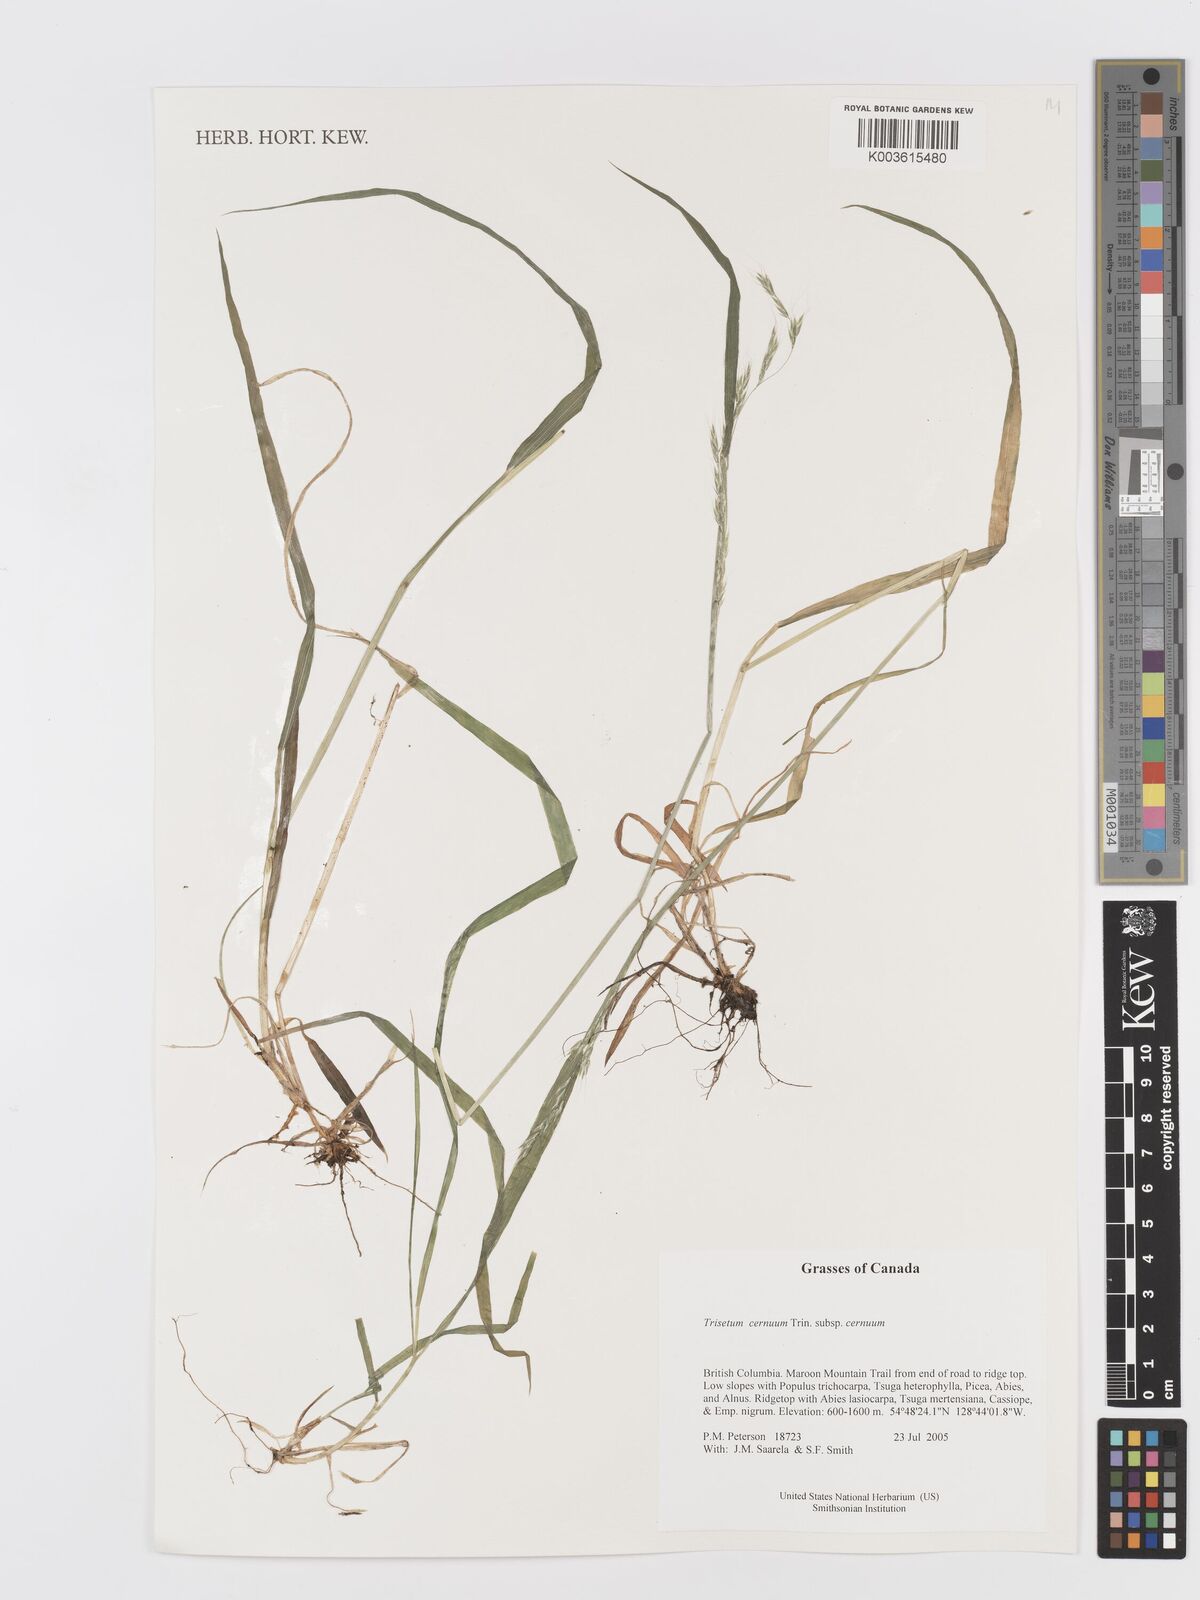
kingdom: Plantae
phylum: Tracheophyta
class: Liliopsida
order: Poales
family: Poaceae
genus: Graphephorum
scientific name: Graphephorum cernuum
